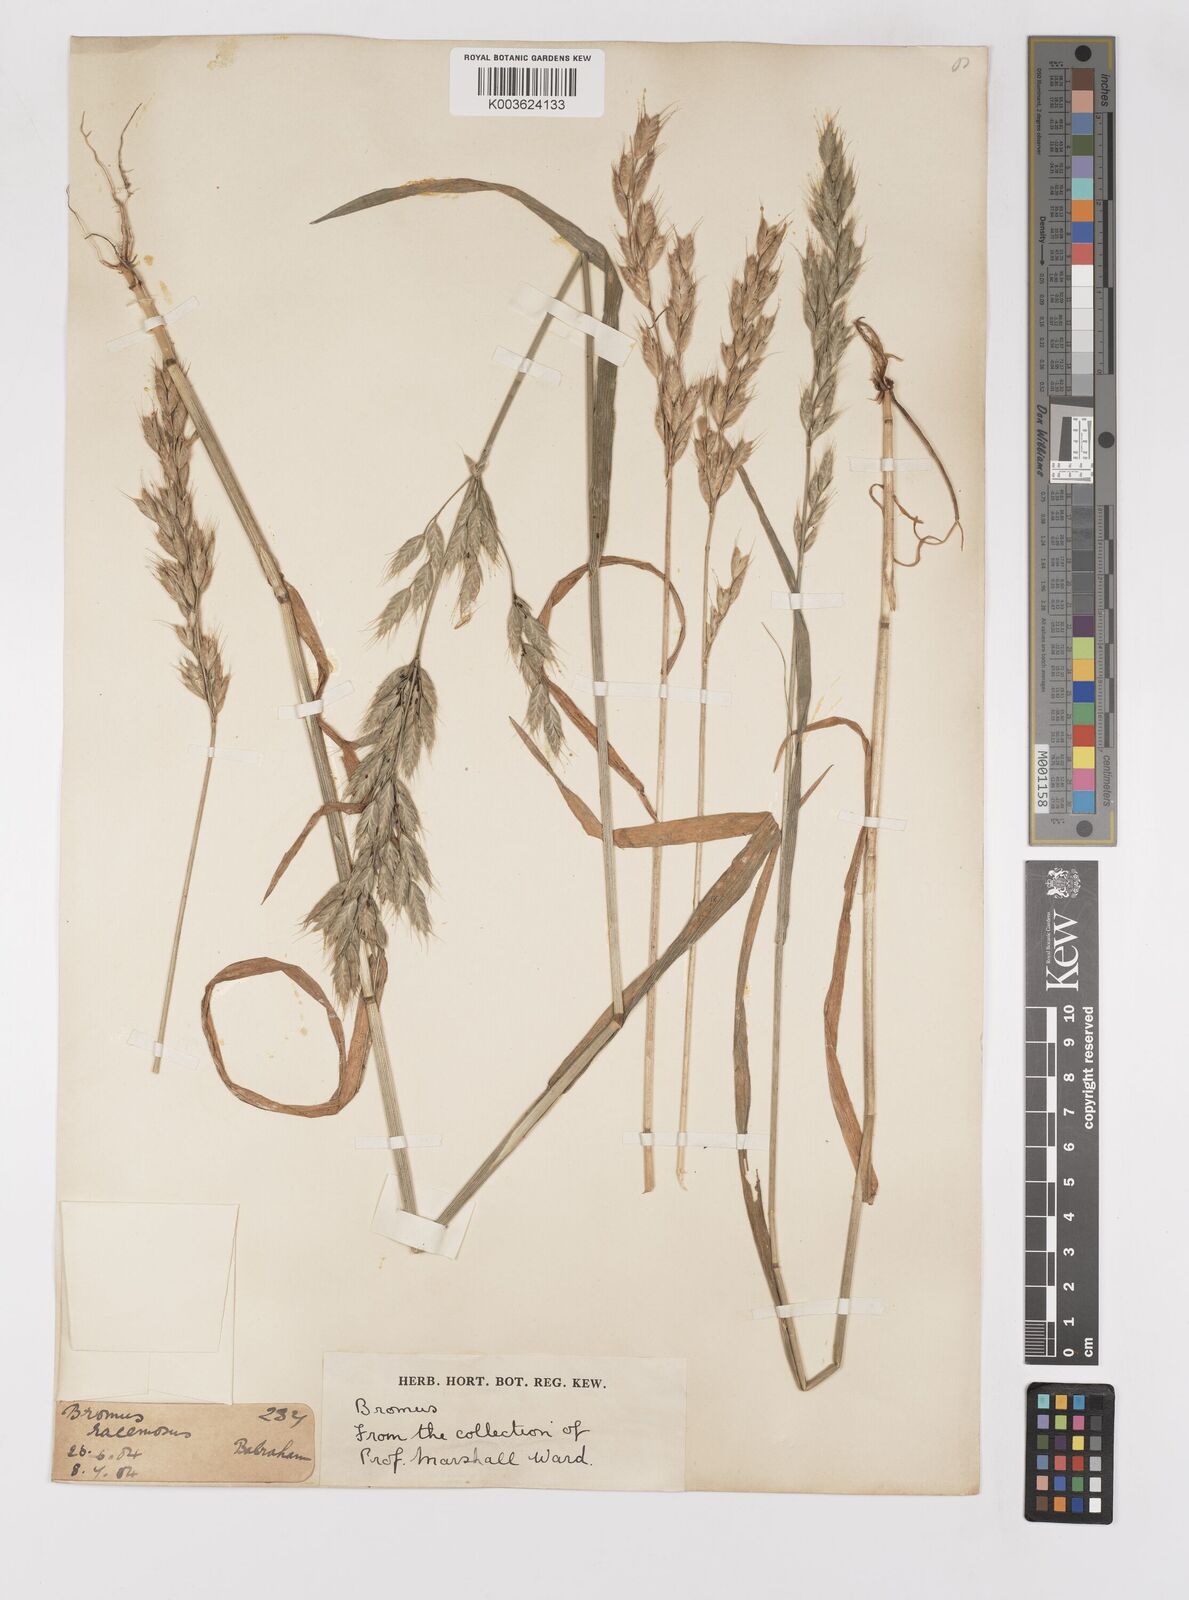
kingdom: Plantae
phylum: Tracheophyta
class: Liliopsida
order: Poales
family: Poaceae
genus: Bromus
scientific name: Bromus hordeaceus
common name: Soft brome
